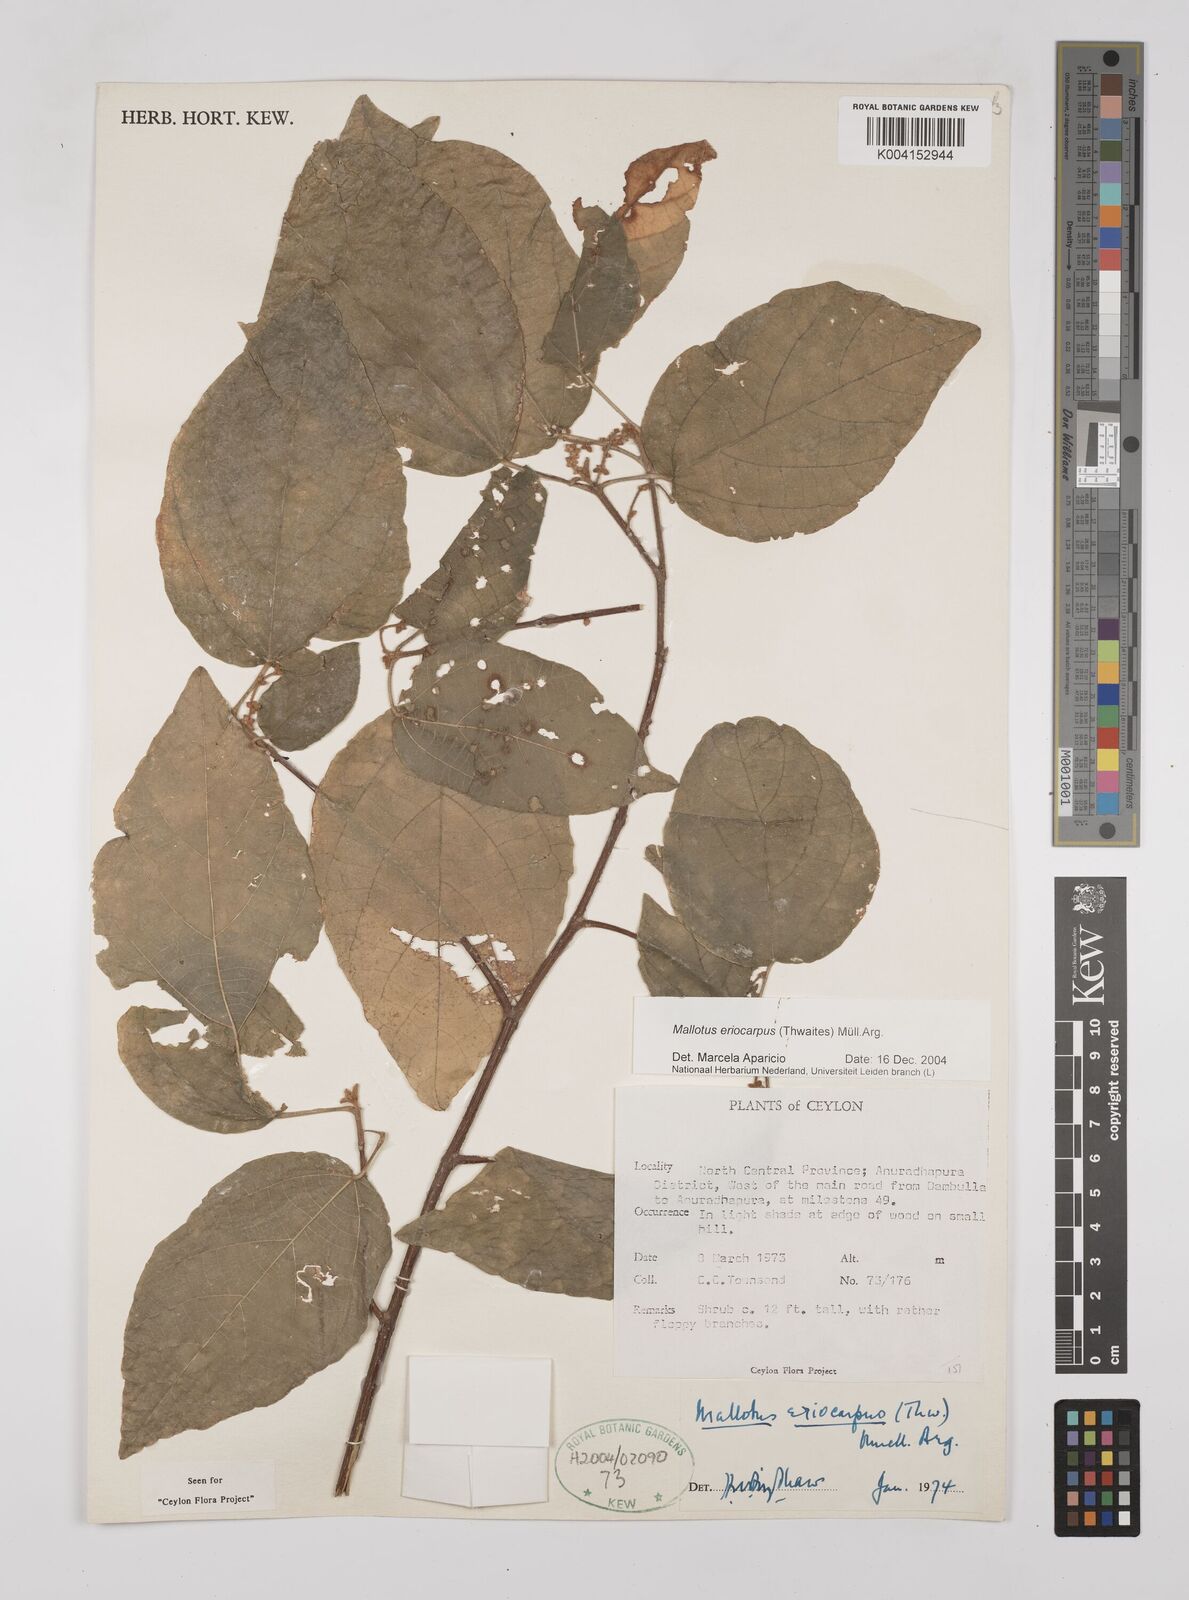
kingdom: Plantae
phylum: Tracheophyta
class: Magnoliopsida
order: Malpighiales
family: Euphorbiaceae
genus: Mallotus
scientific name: Mallotus eriocarpus
